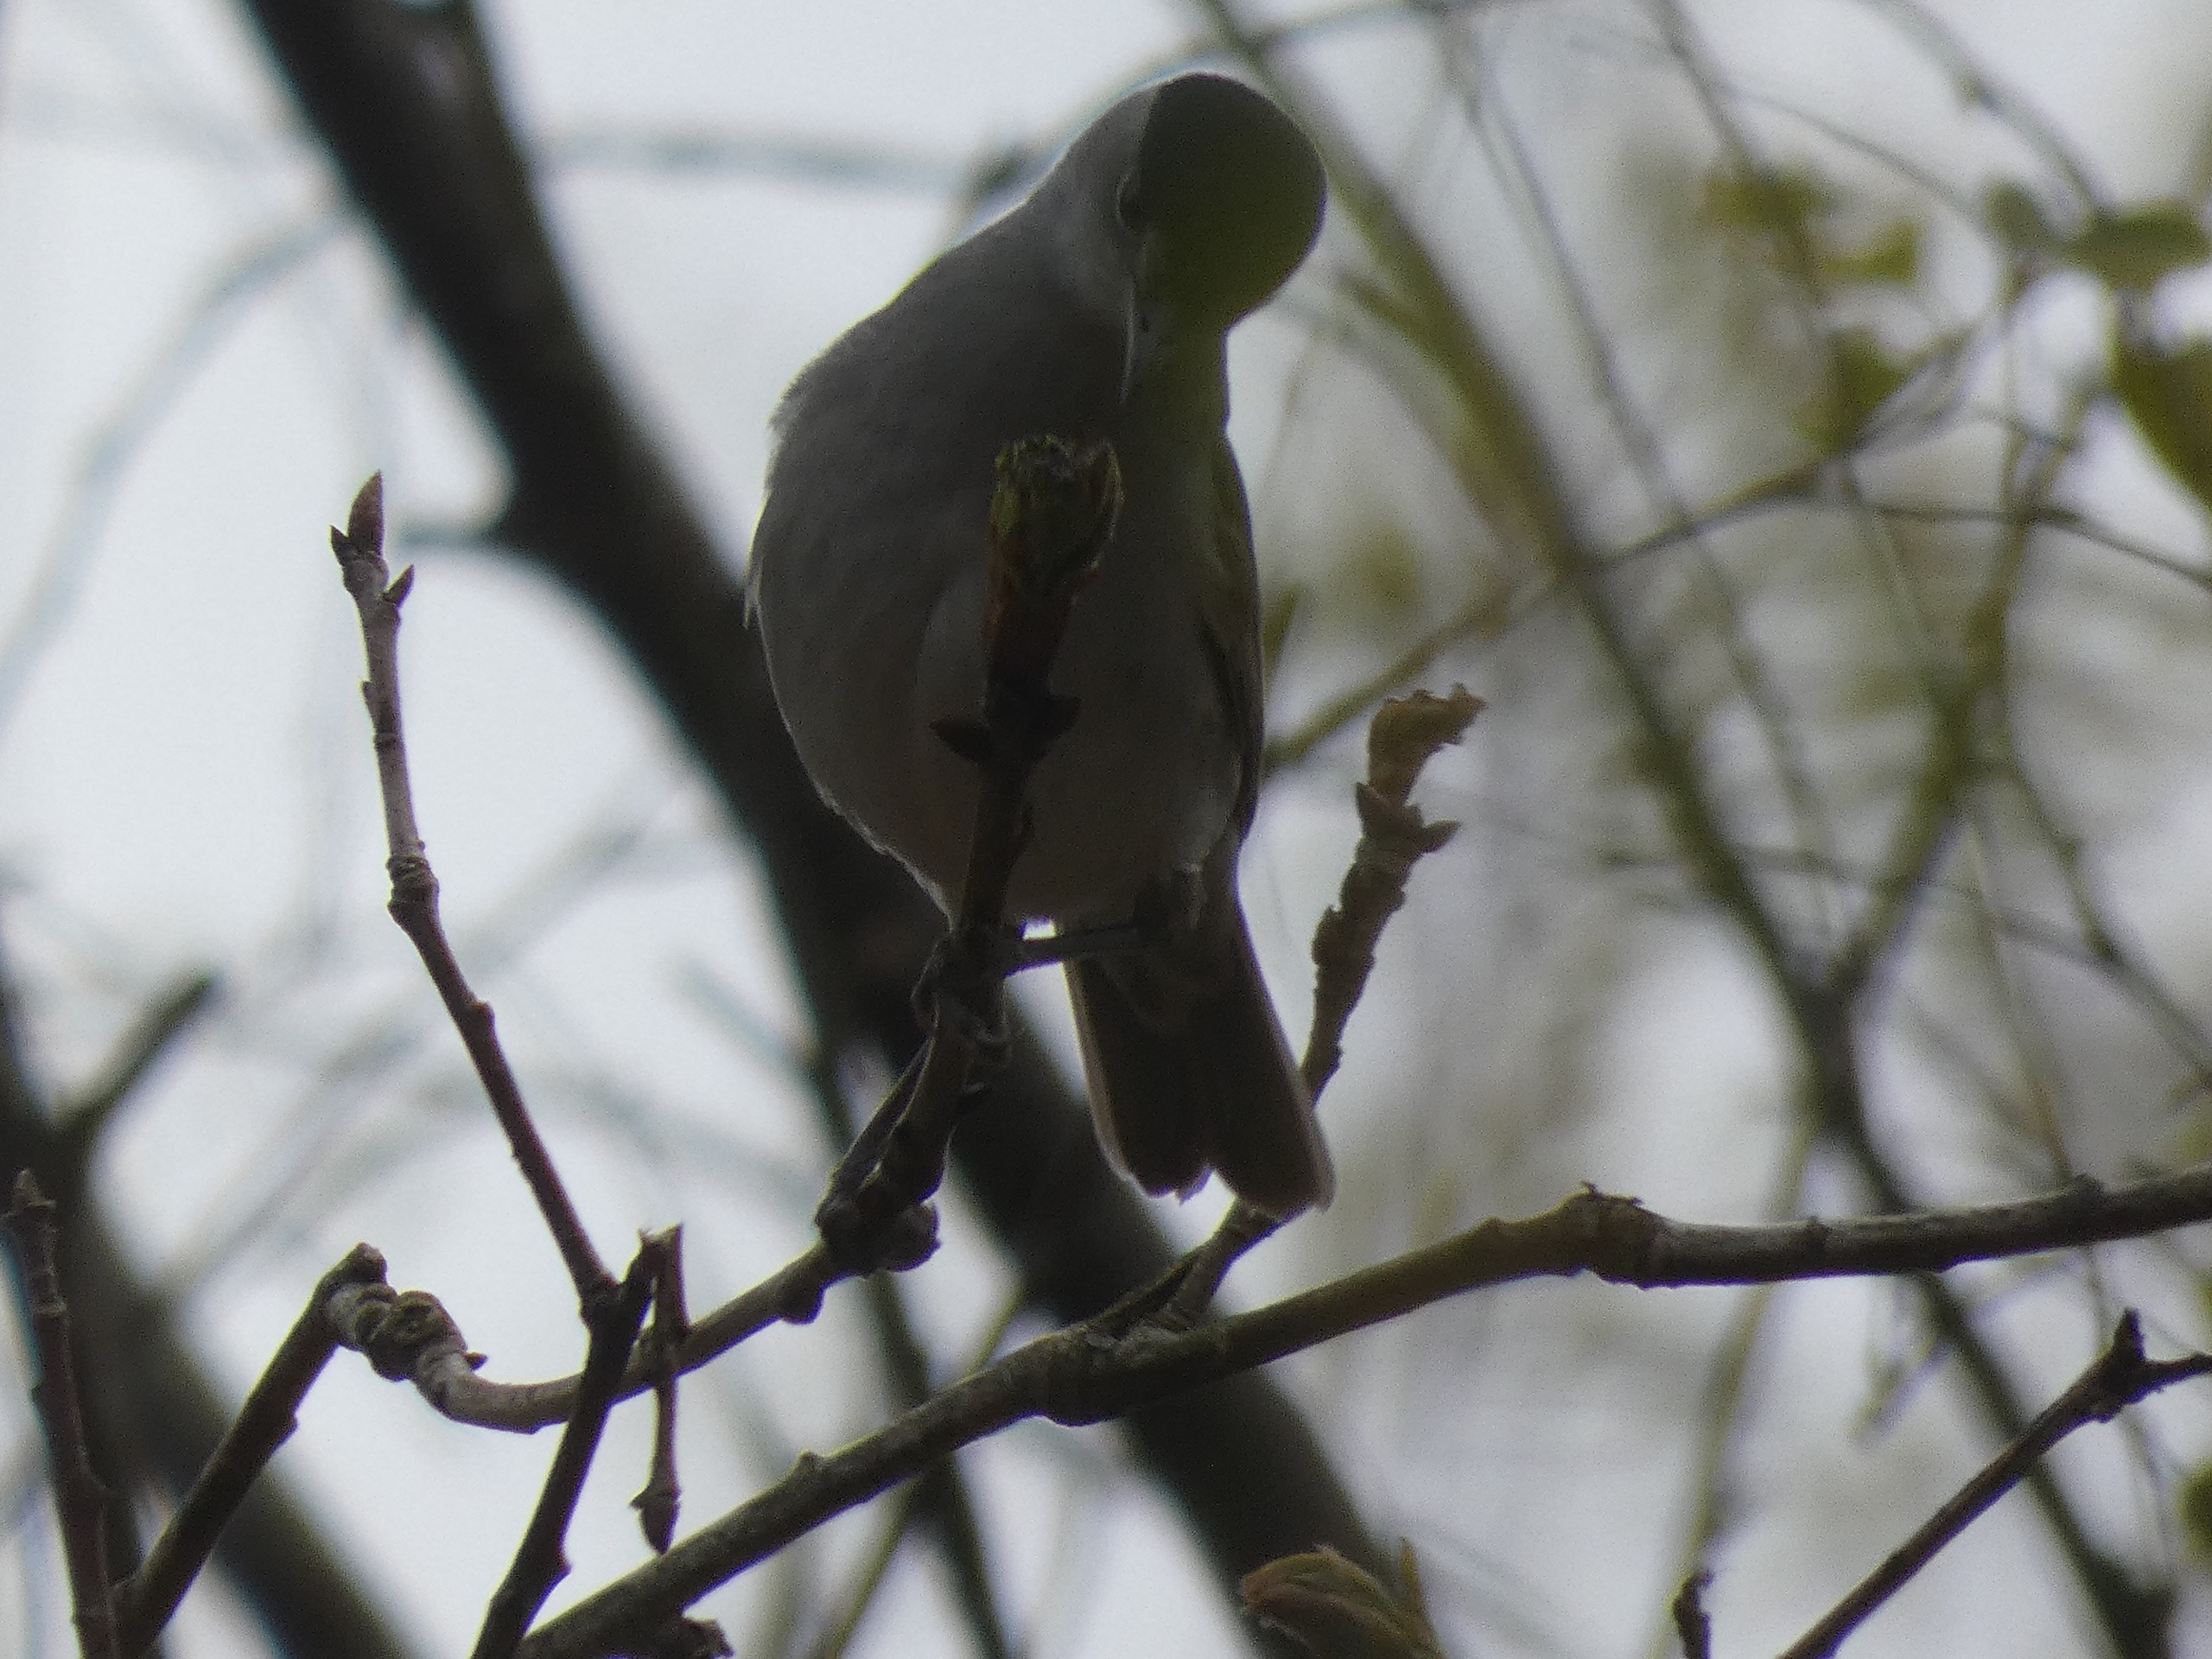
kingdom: Animalia
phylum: Chordata
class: Aves
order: Passeriformes
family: Sylviidae
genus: Sylvia
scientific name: Sylvia atricapilla
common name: Munk
